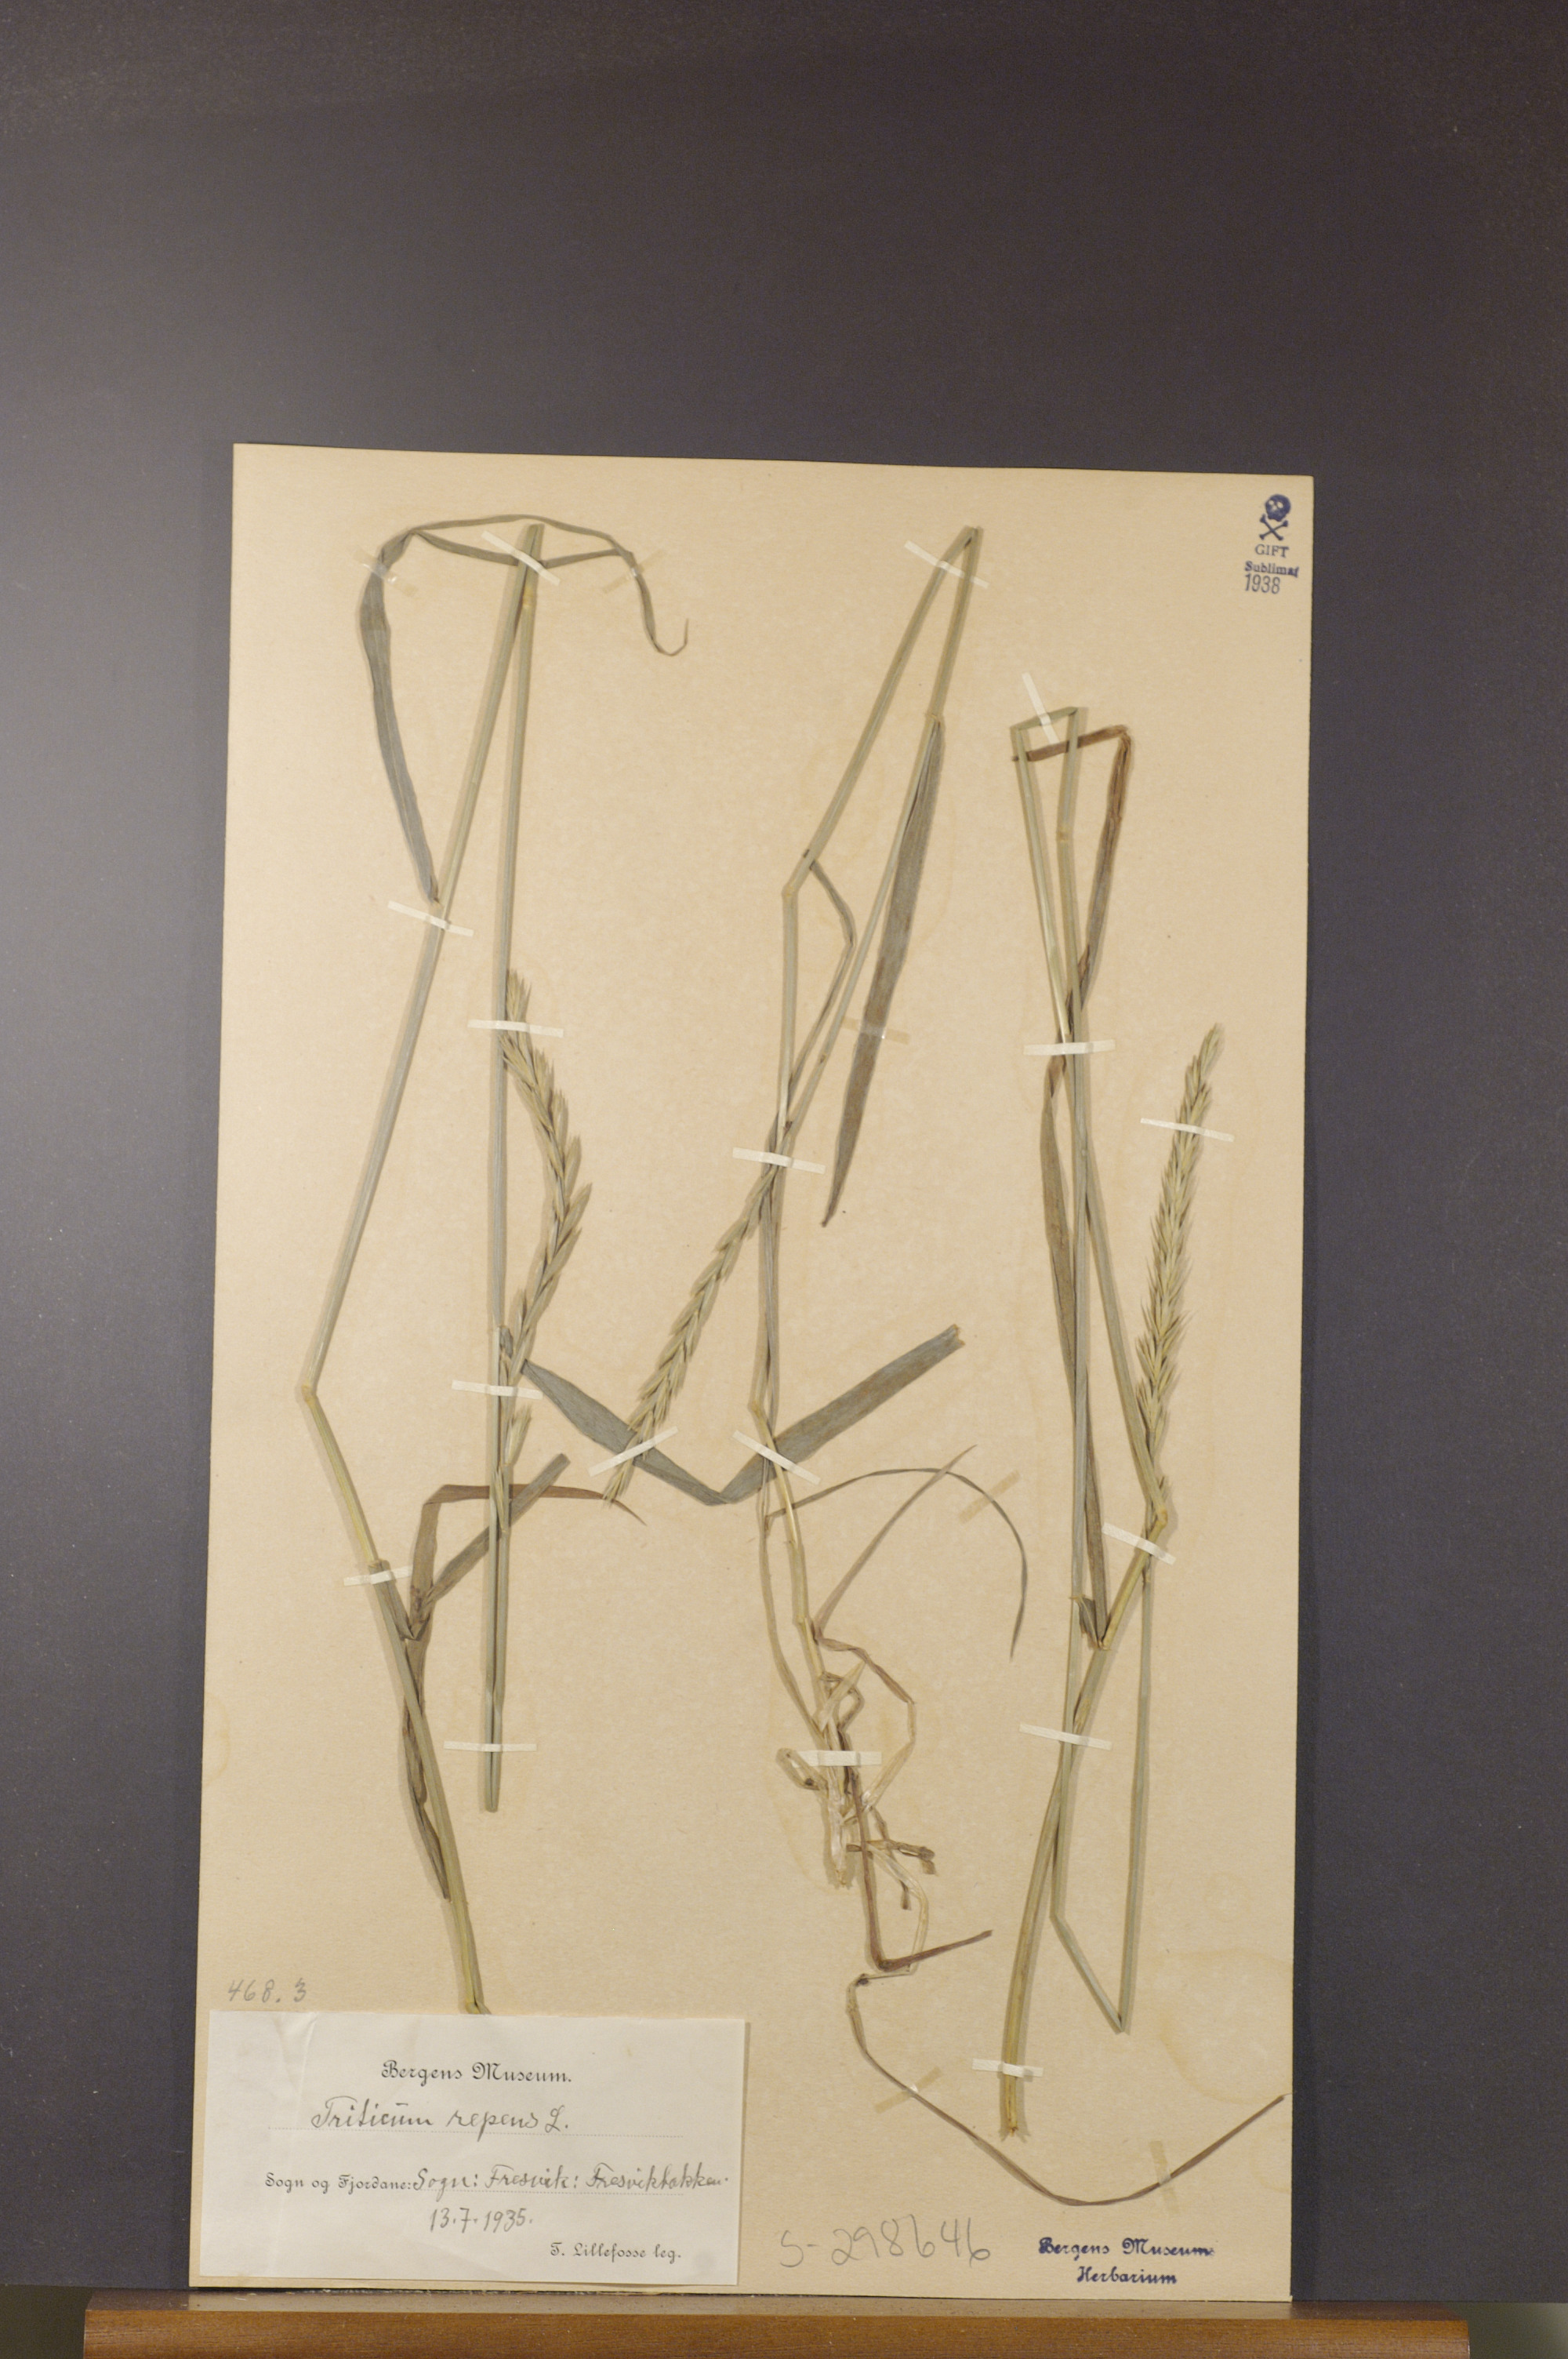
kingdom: Plantae
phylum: Tracheophyta
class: Liliopsida
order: Poales
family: Poaceae
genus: Elymus
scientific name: Elymus repens
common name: Quackgrass
